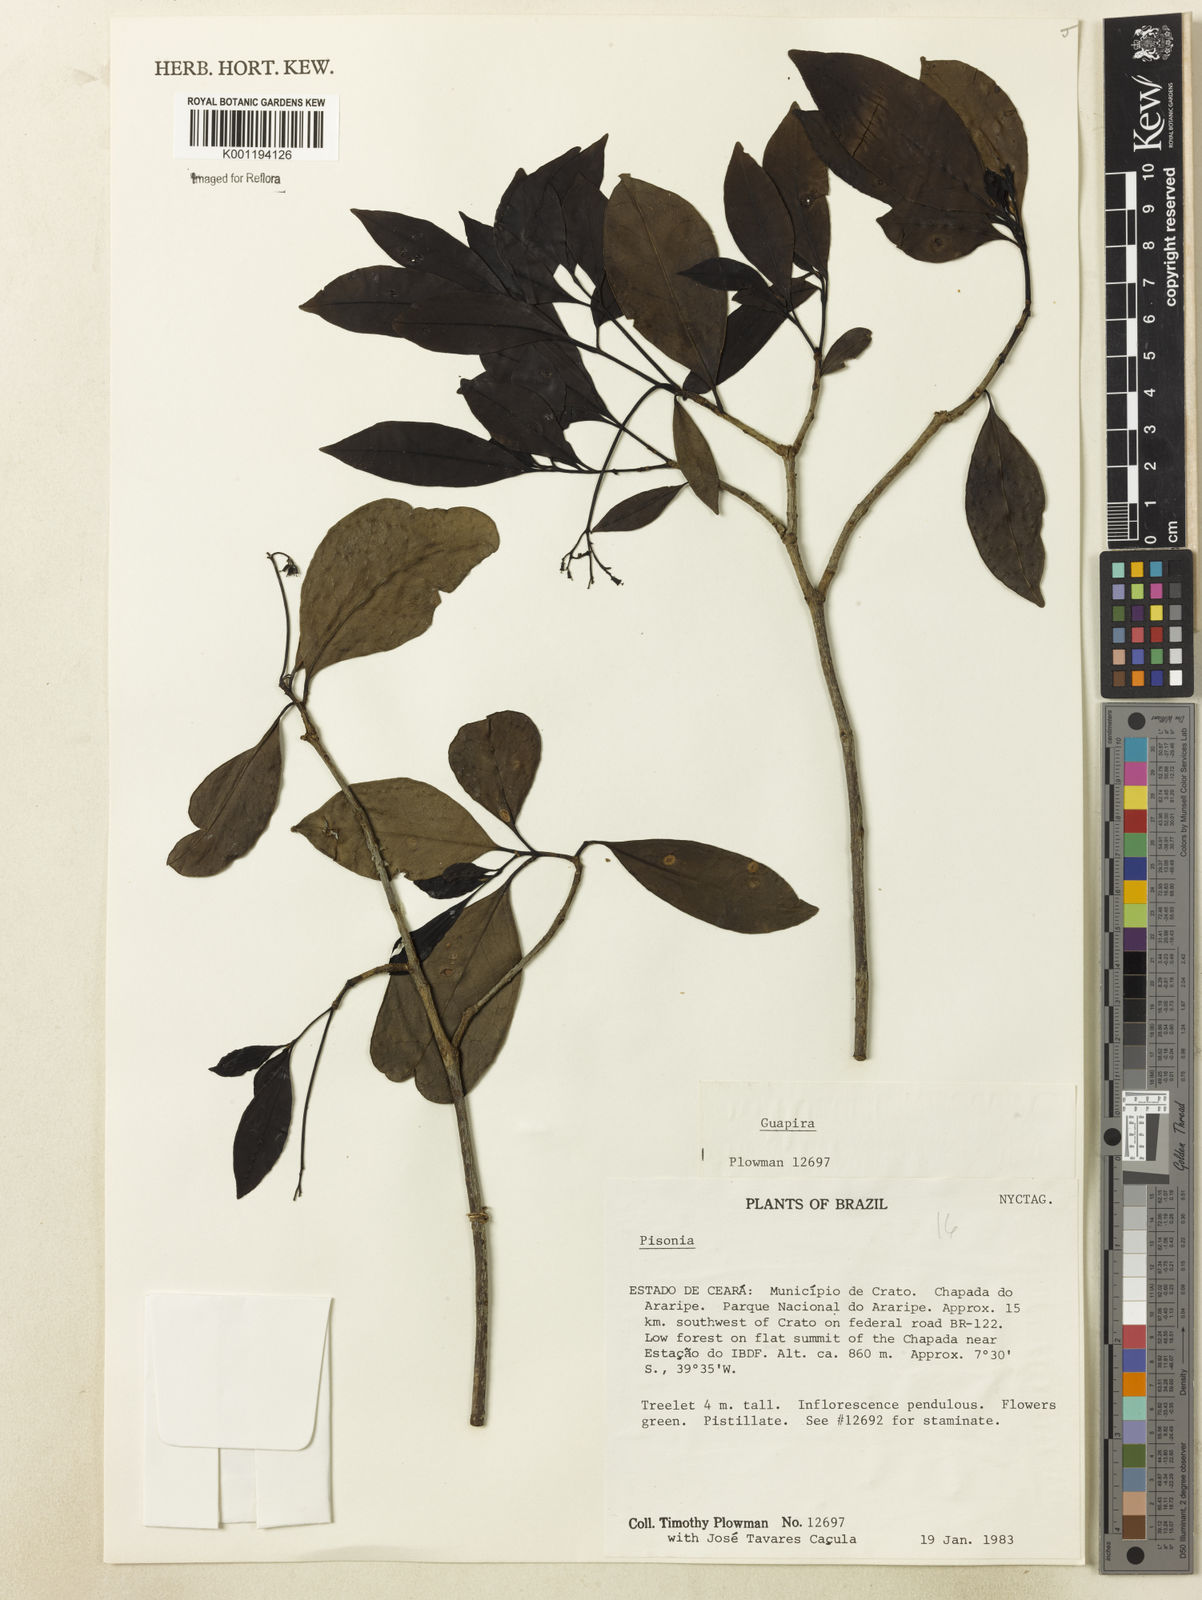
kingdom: Plantae
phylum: Tracheophyta
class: Magnoliopsida
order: Caryophyllales
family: Nyctaginaceae
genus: Guapira
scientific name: Guapira
